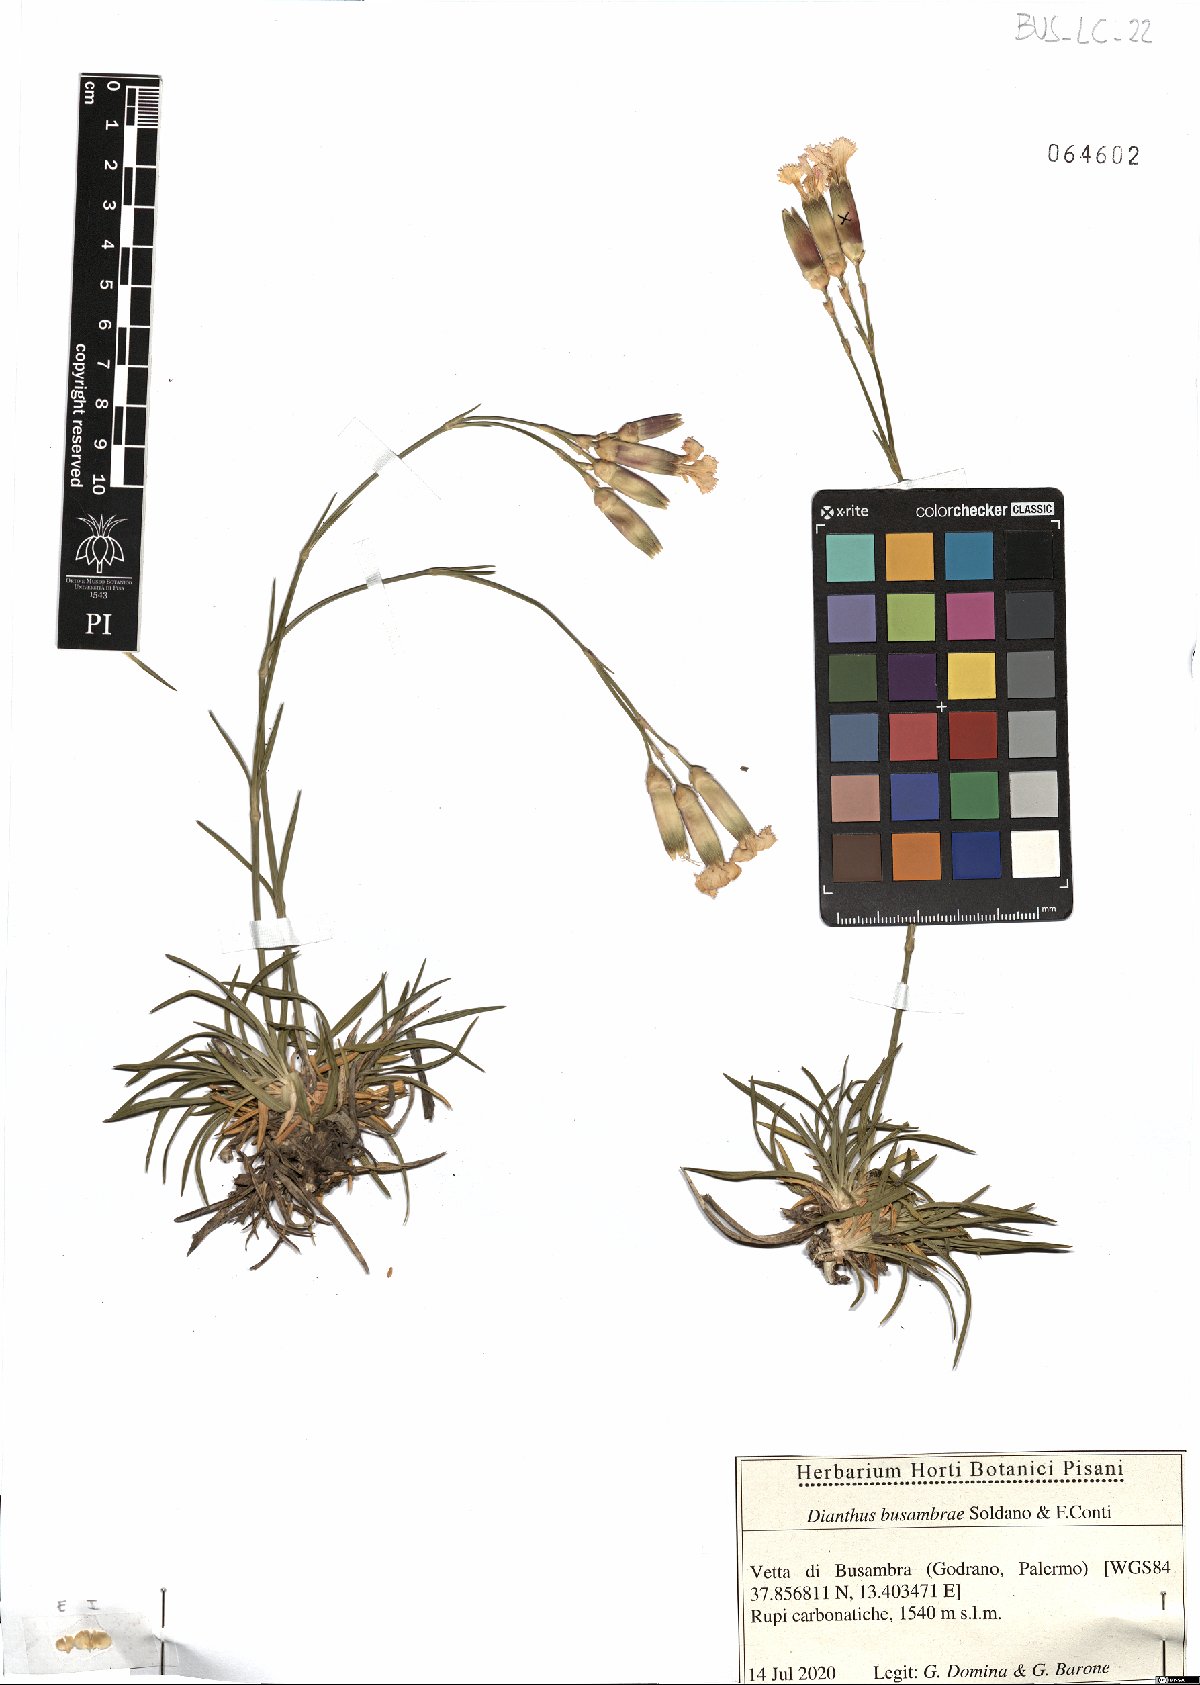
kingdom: Plantae
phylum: Tracheophyta
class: Magnoliopsida
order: Caryophyllales
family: Caryophyllaceae
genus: Dianthus
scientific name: Dianthus busambrae
